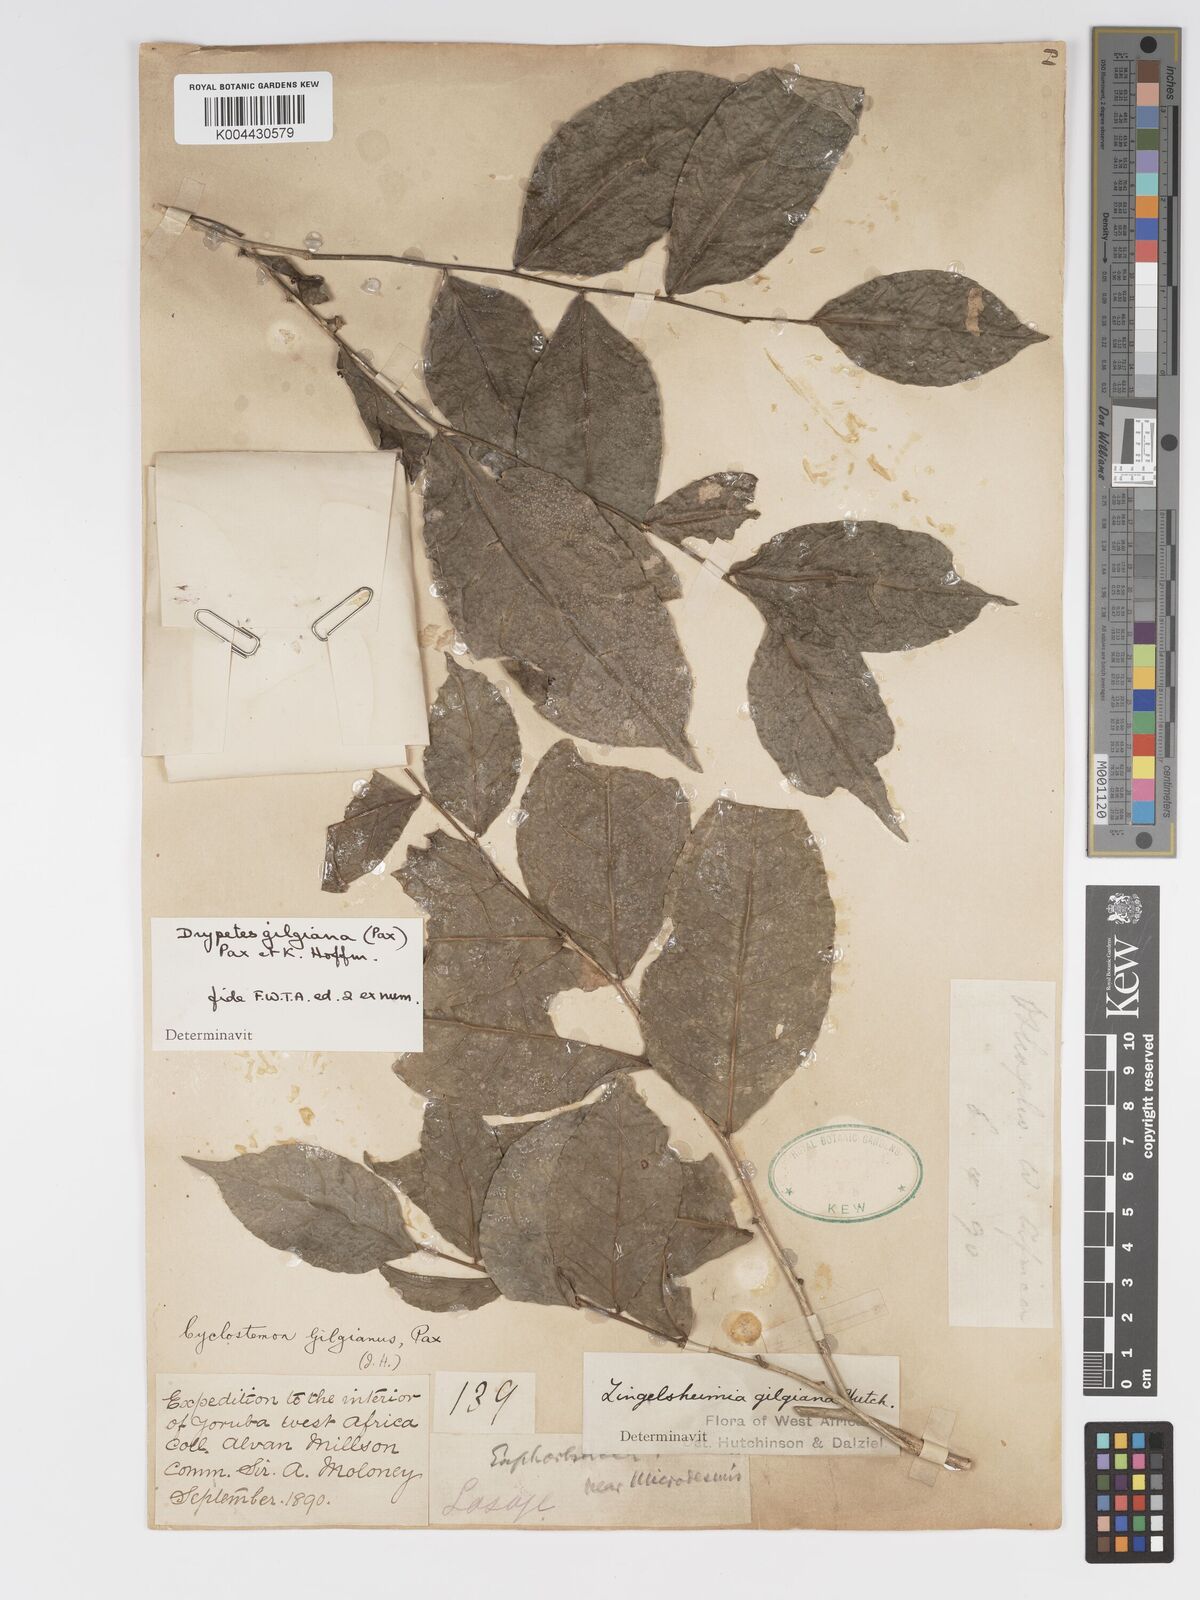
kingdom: Plantae
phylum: Tracheophyta
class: Magnoliopsida
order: Malpighiales
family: Putranjivaceae
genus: Drypetes
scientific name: Drypetes gilgiana
